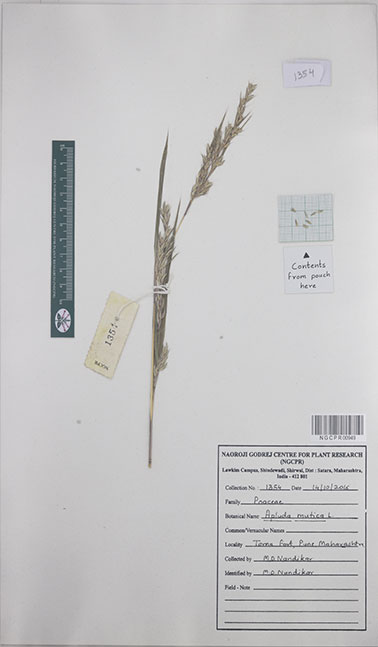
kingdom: Plantae
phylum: Tracheophyta
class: Liliopsida
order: Poales
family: Poaceae
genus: Apluda
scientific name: Apluda mutica
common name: Mauritian grass
